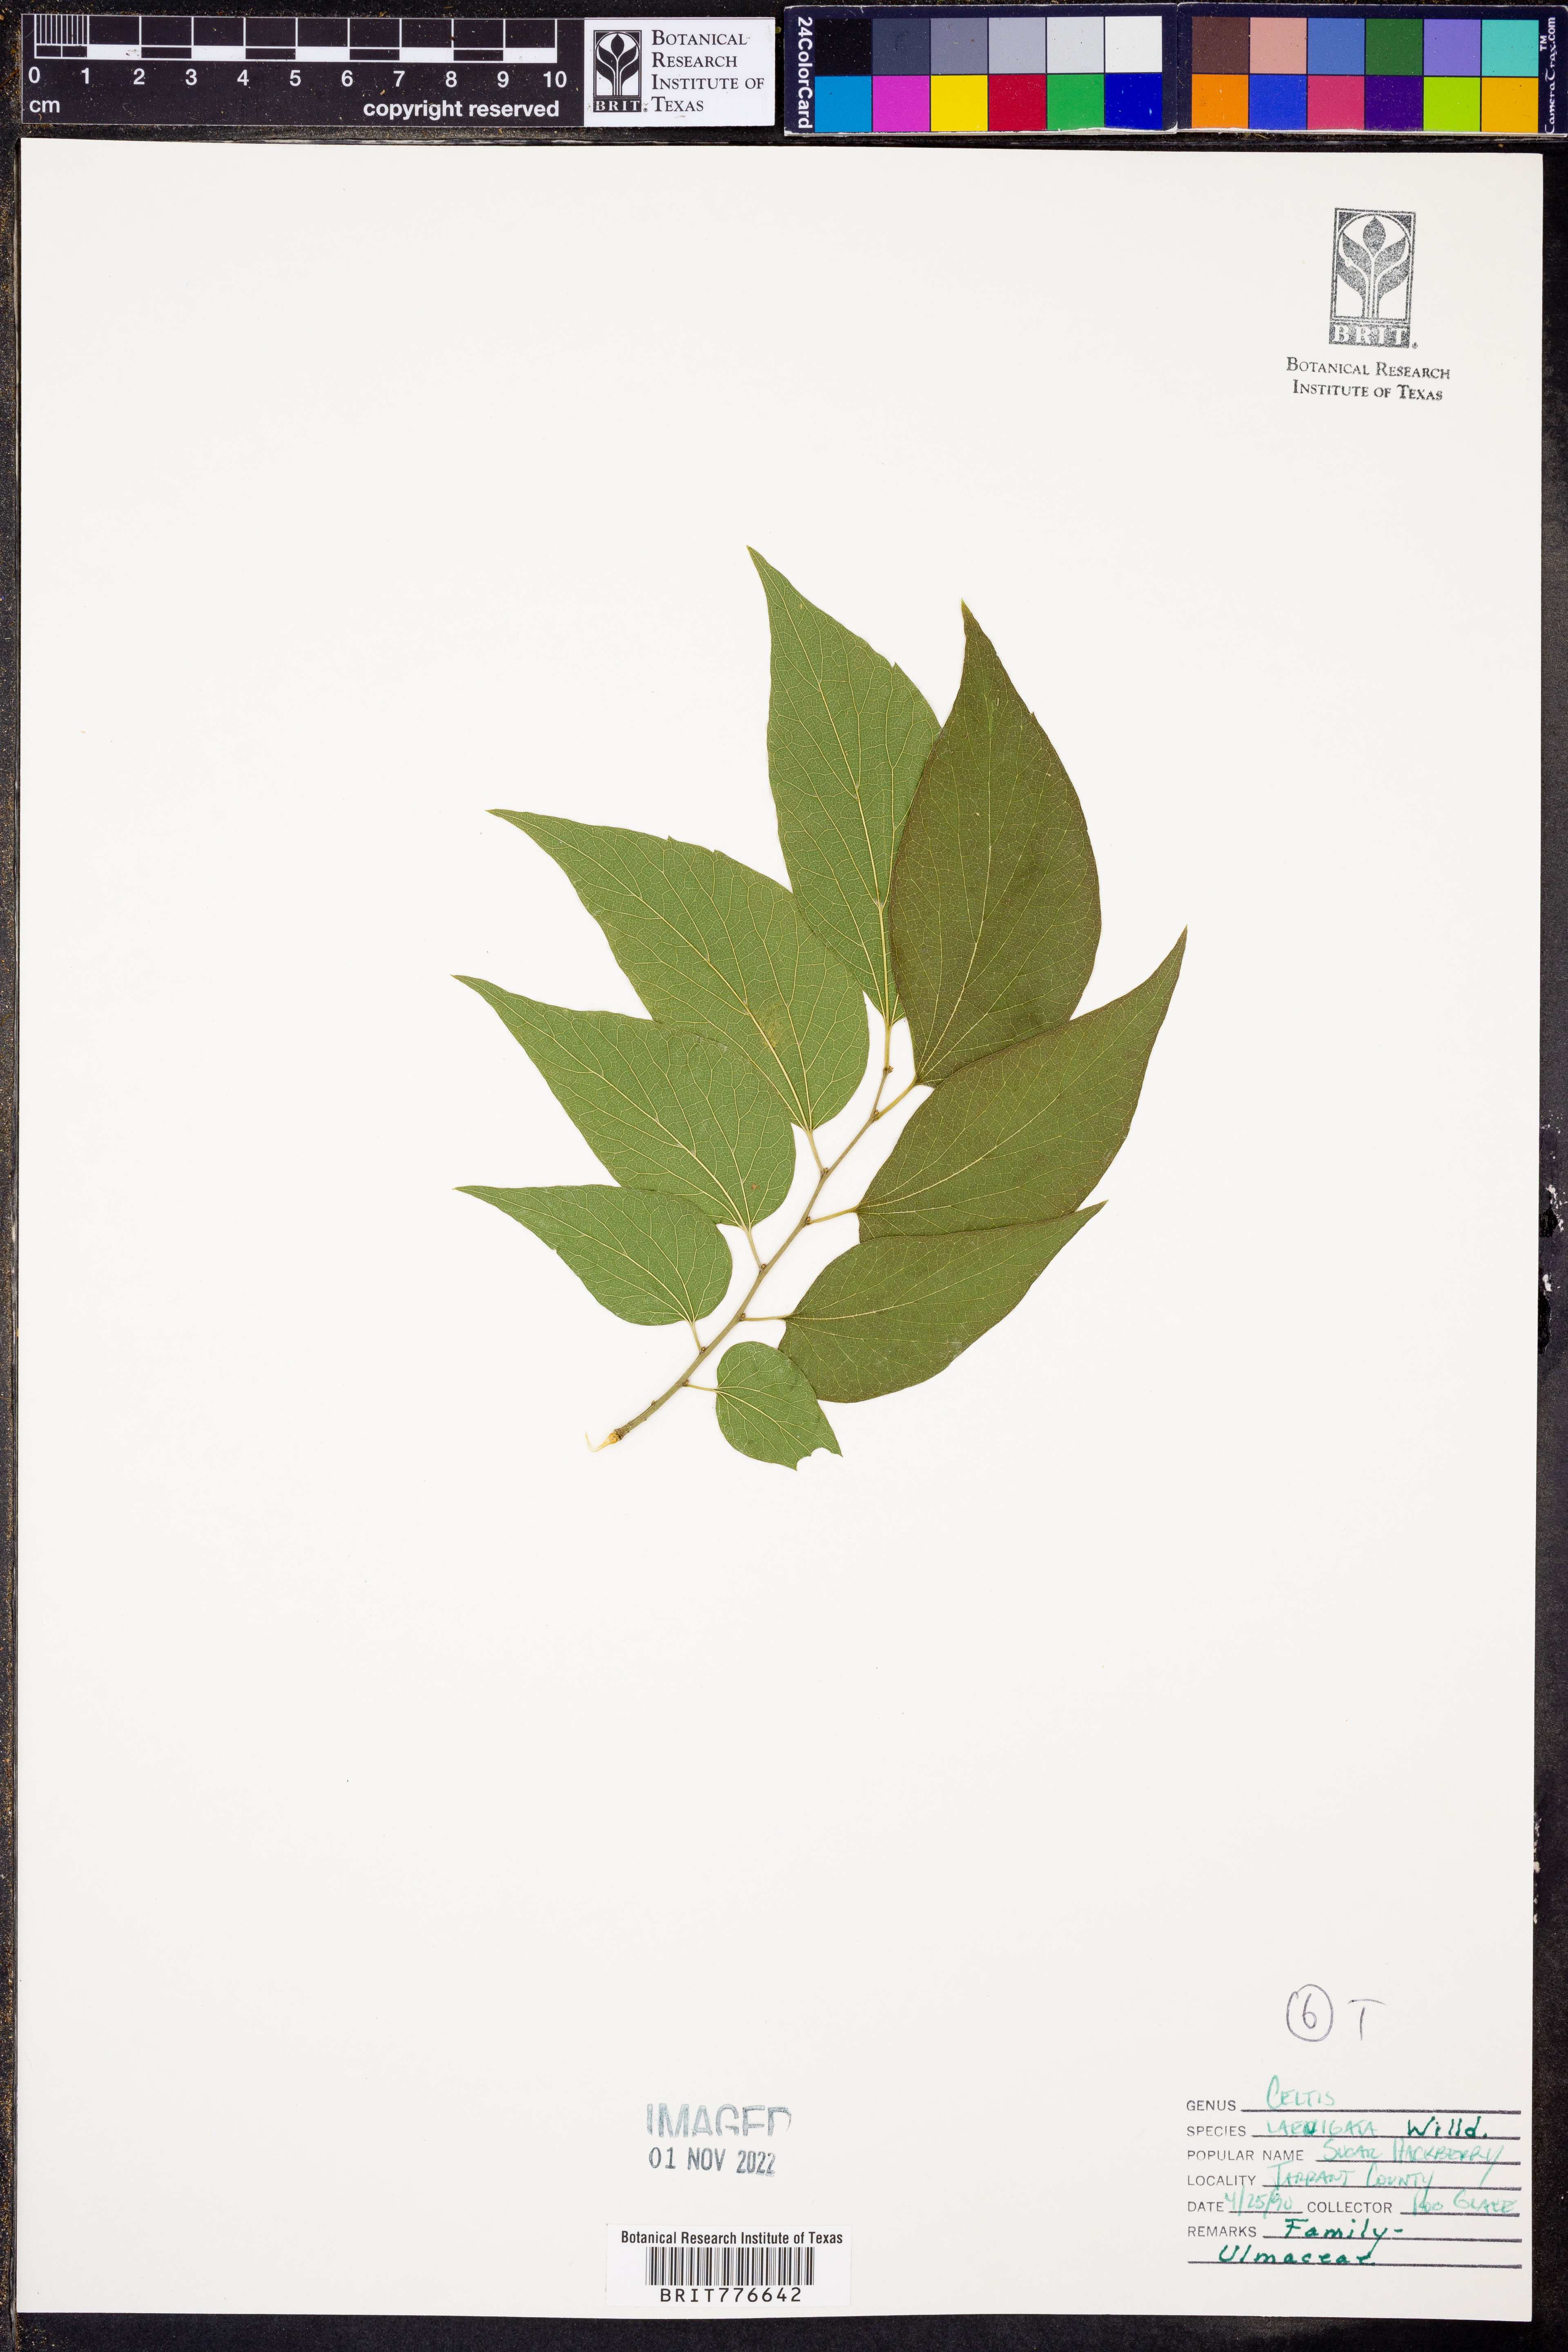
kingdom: Plantae
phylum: Tracheophyta
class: Magnoliopsida
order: Rosales
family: Cannabaceae
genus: Celtis
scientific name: Celtis laevigata
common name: Sugarberry
